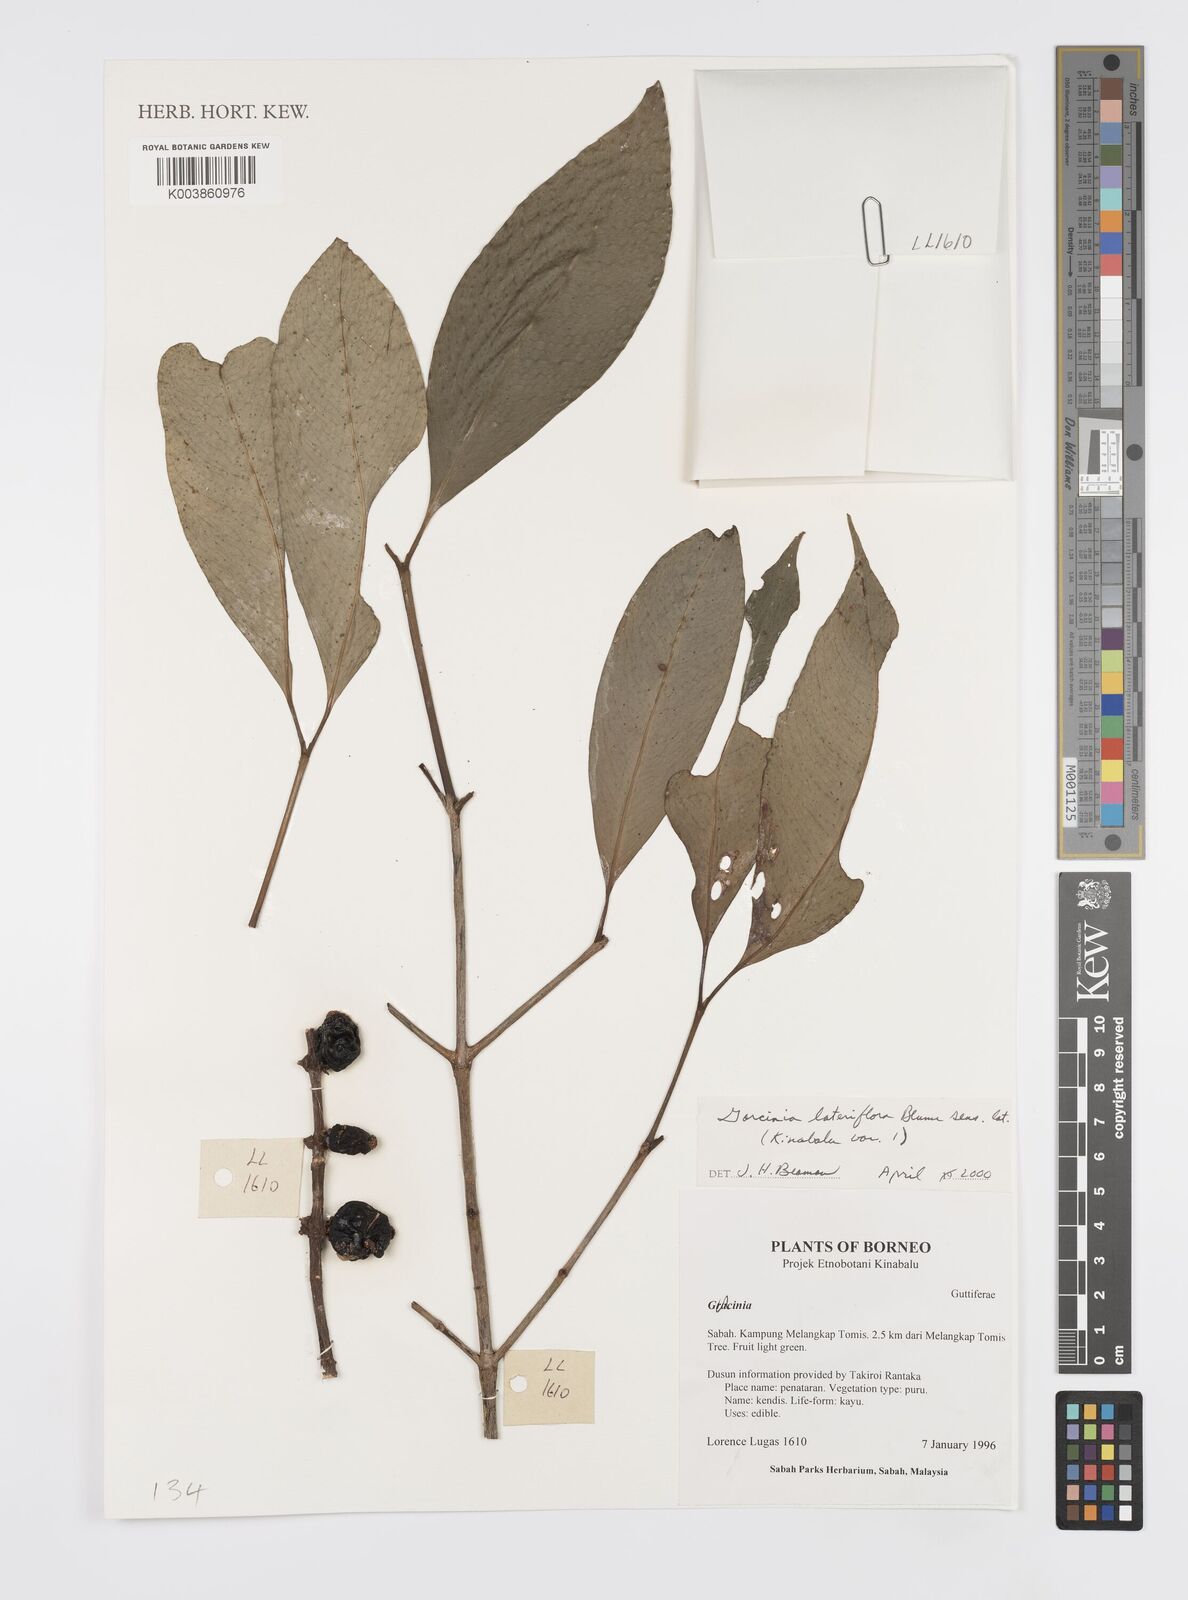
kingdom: Plantae
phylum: Tracheophyta
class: Magnoliopsida
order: Malpighiales
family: Clusiaceae
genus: Garcinia
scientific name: Garcinia lateriflora
